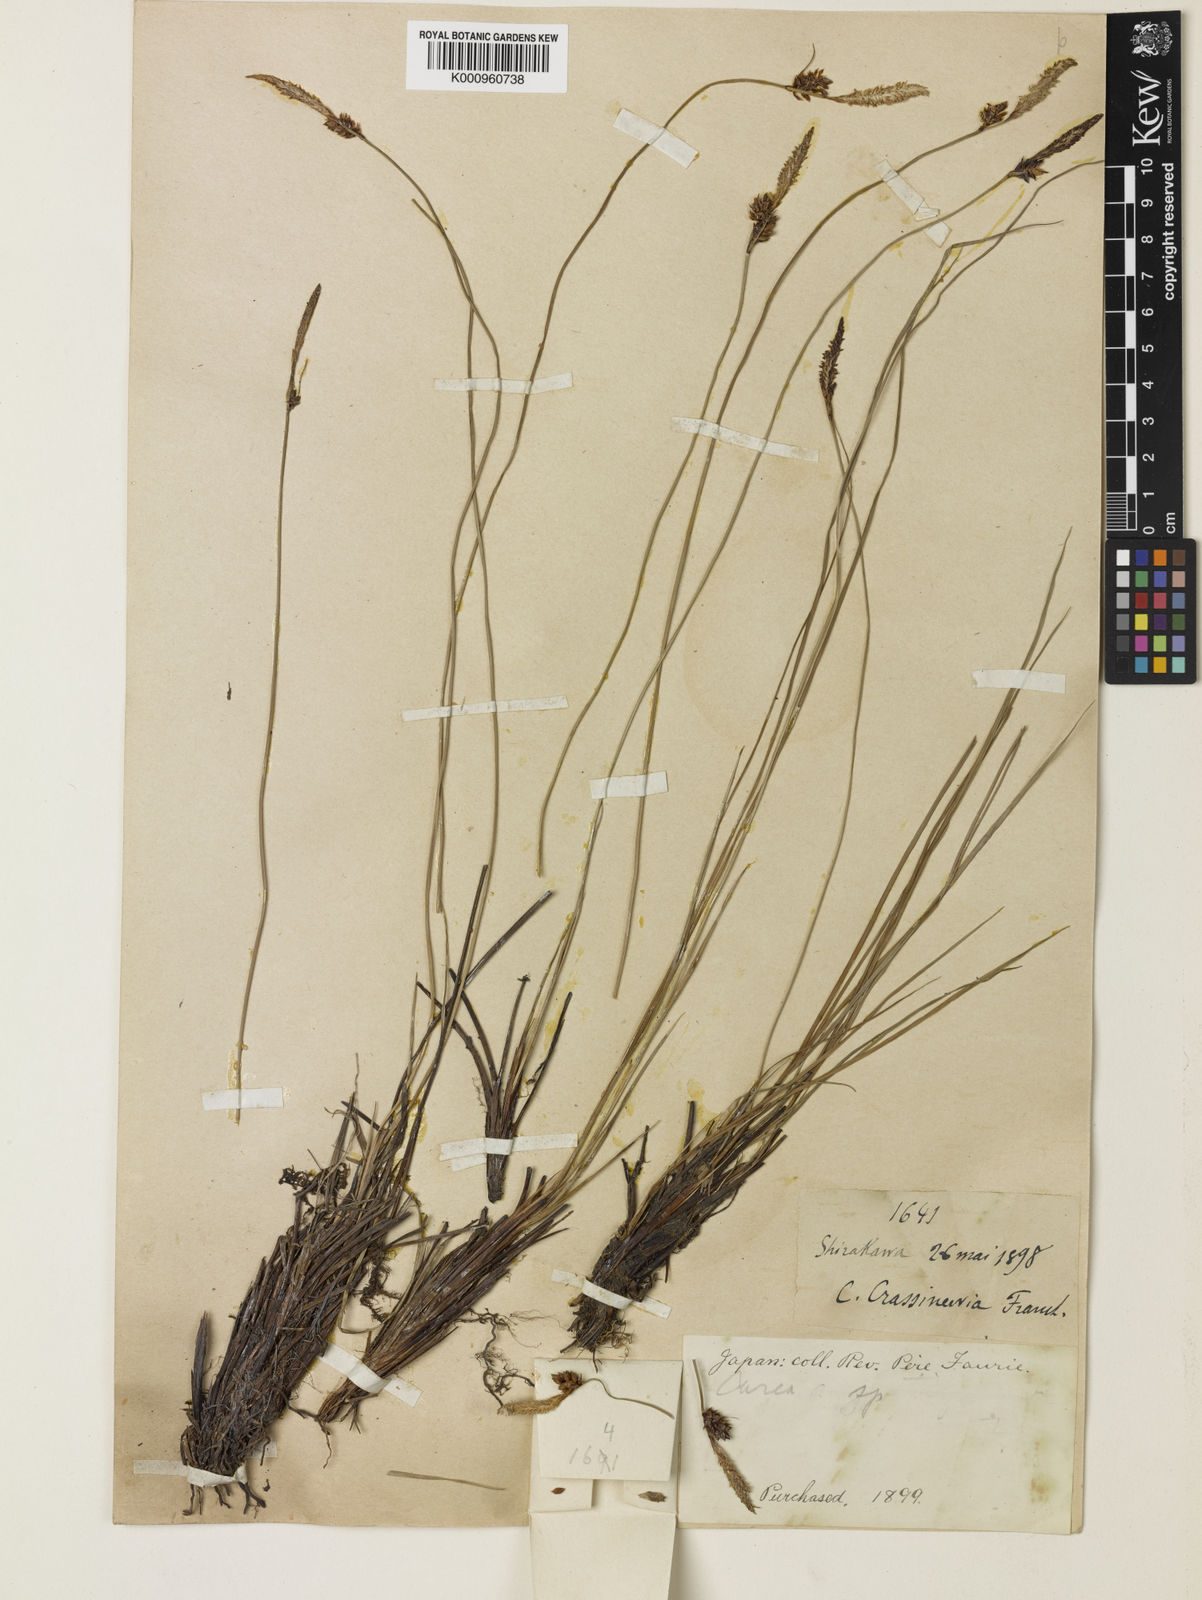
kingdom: Plantae
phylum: Tracheophyta
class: Liliopsida
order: Poales
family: Cyperaceae
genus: Carex
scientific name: Carex meyeriana
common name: Wula sedge
